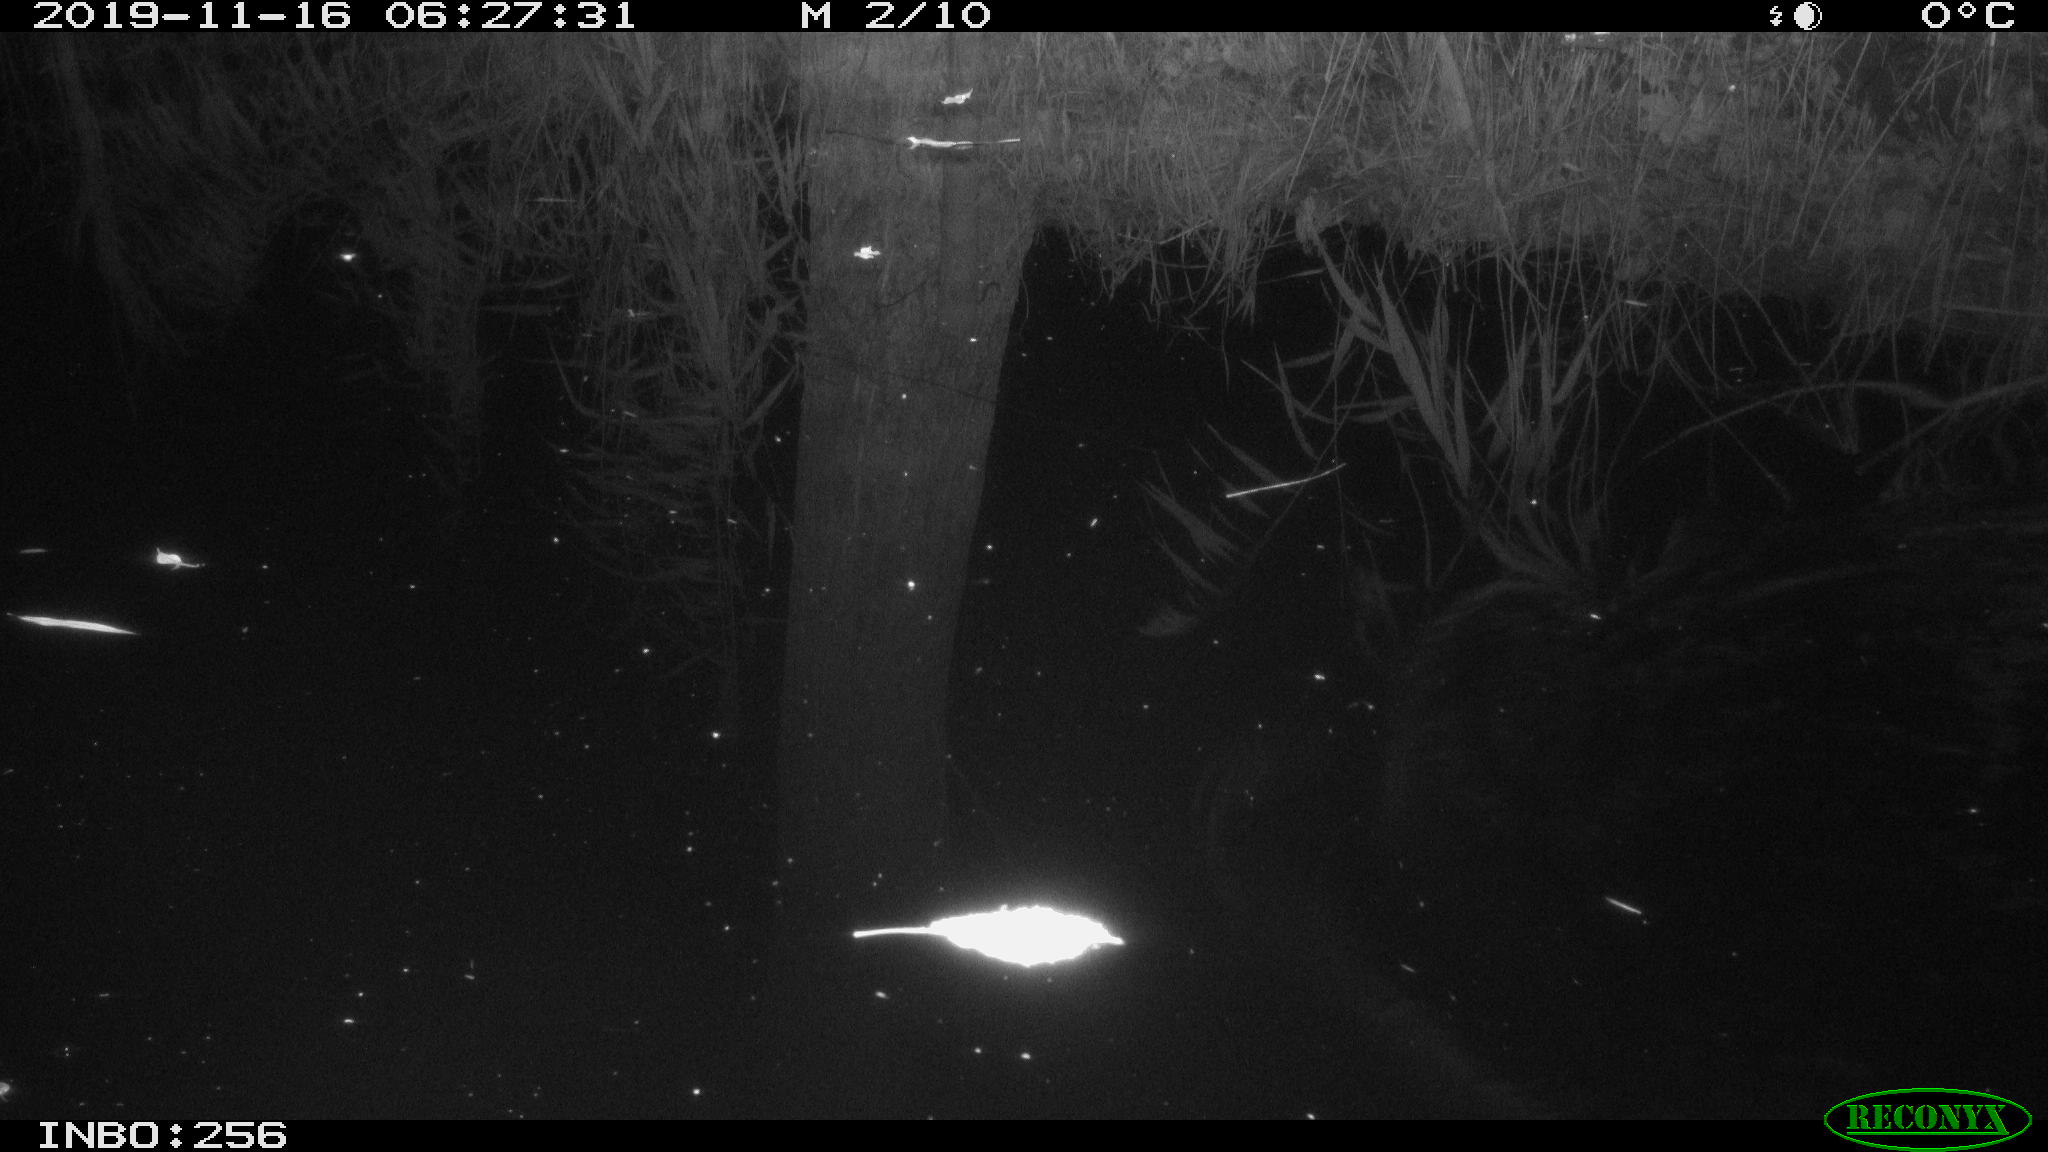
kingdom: Animalia
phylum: Chordata
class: Mammalia
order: Rodentia
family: Muridae
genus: Rattus
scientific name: Rattus norvegicus
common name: Brown rat
